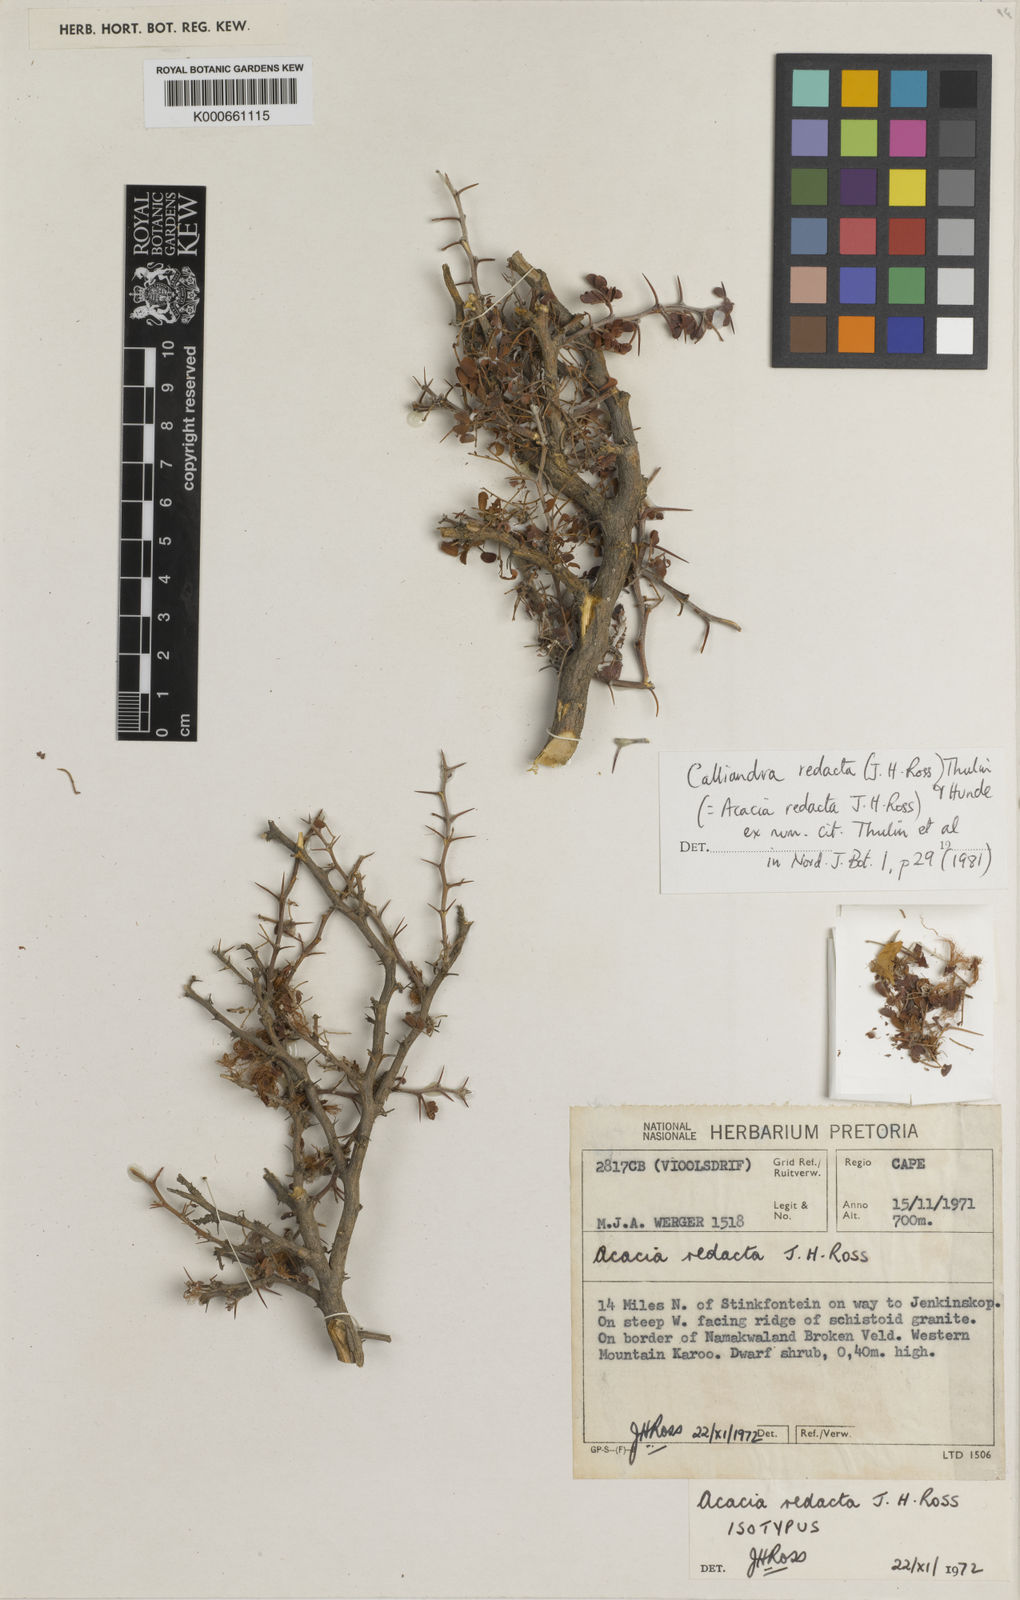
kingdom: Plantae
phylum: Tracheophyta
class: Magnoliopsida
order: Fabales
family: Fabaceae
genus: Afrocalliandra
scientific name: Afrocalliandra redacta
